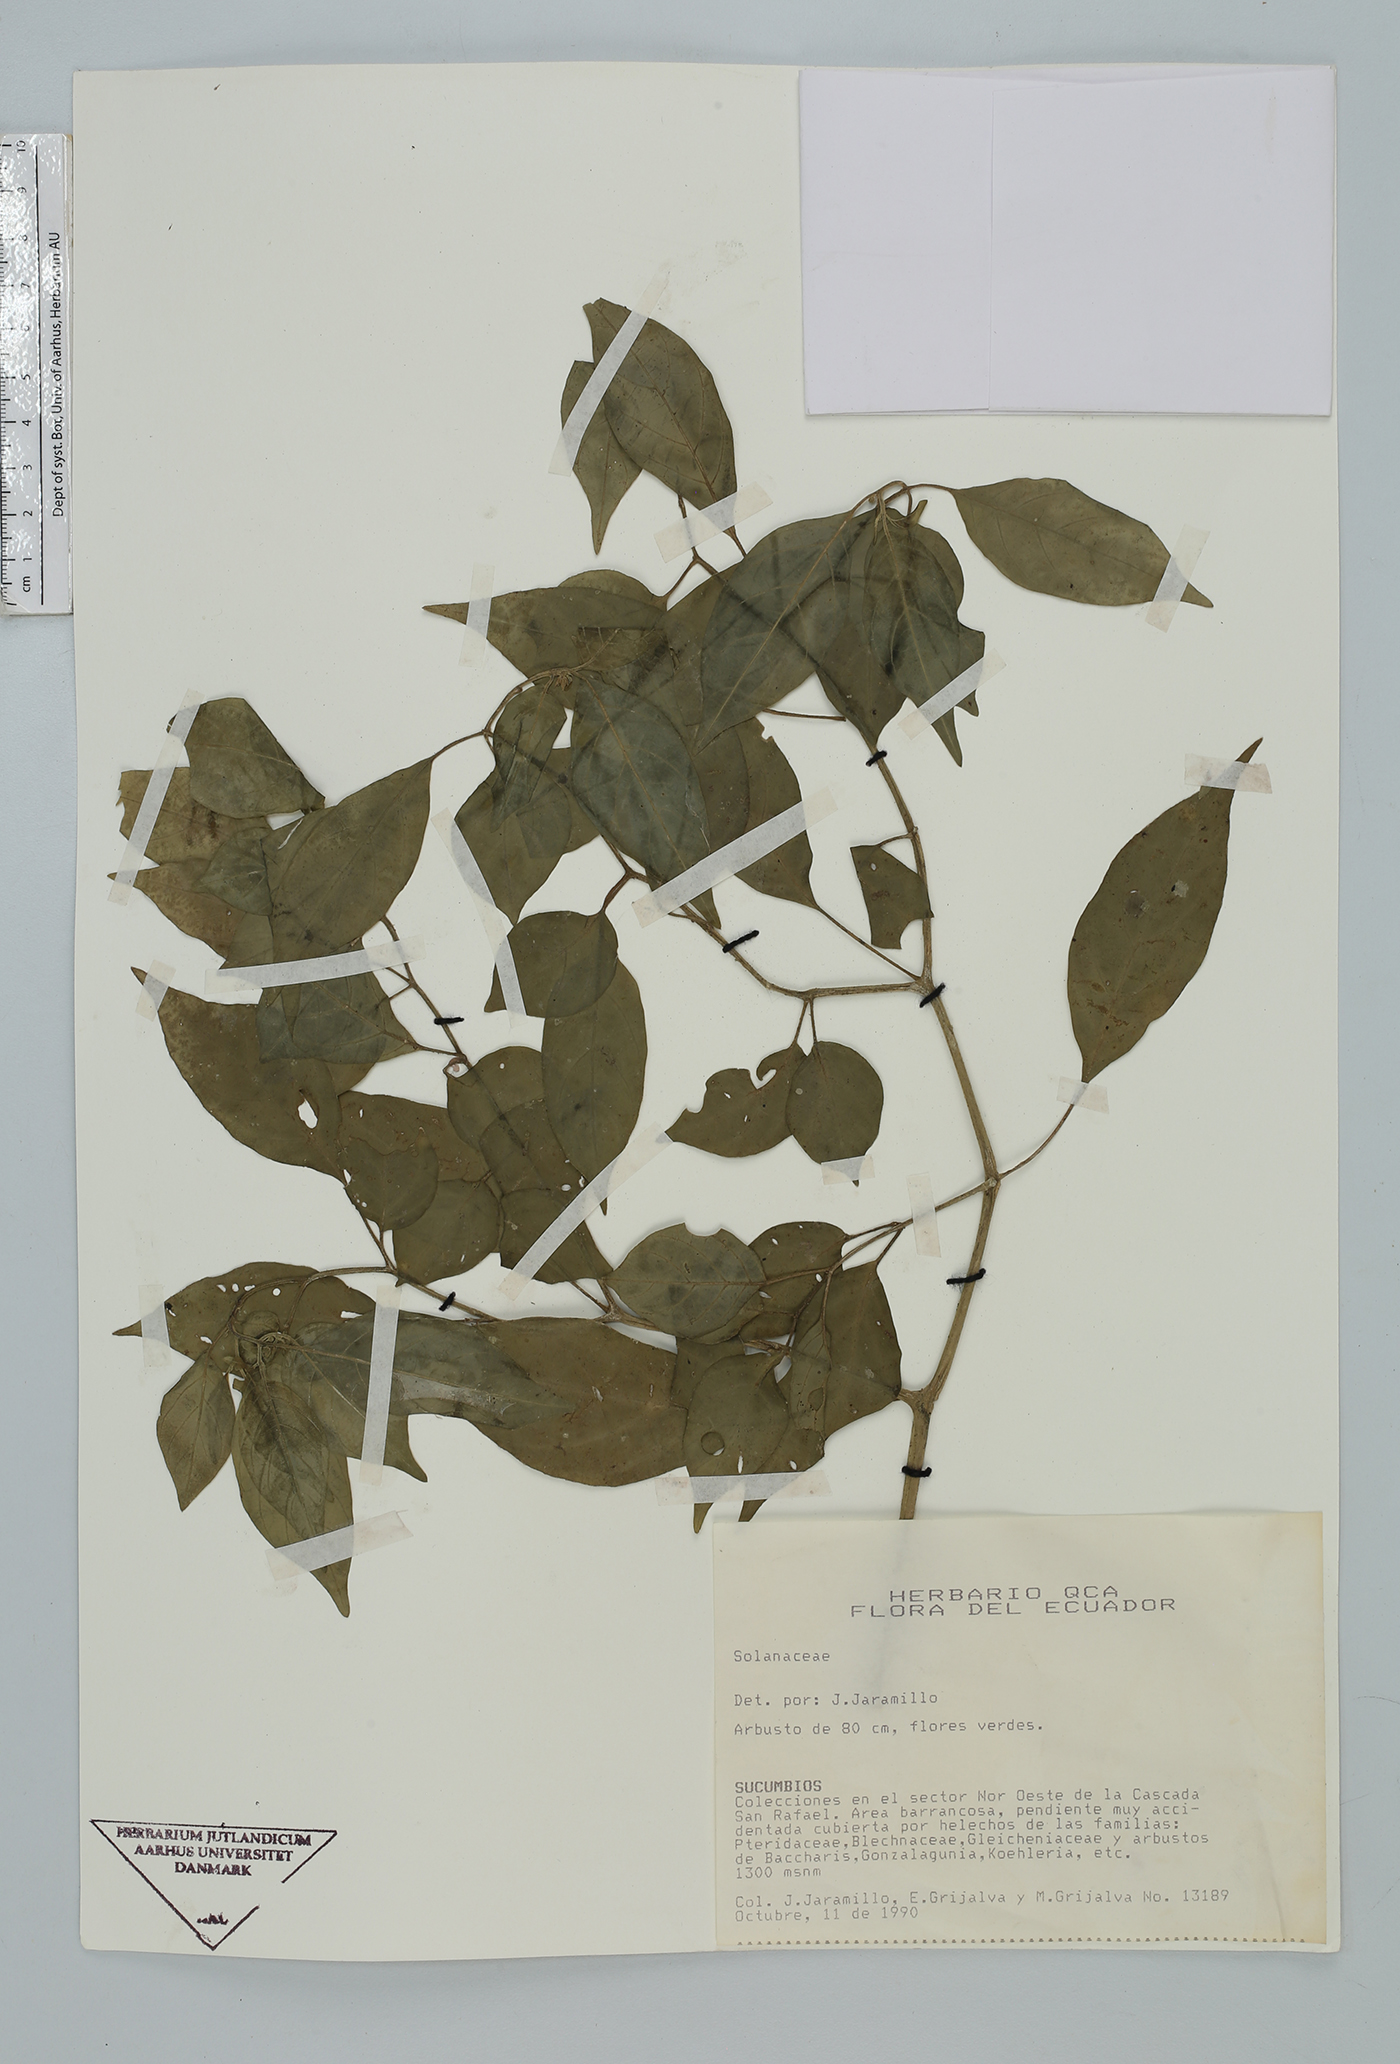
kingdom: Plantae
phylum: Tracheophyta
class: Magnoliopsida
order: Solanales
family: Solanaceae
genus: Deprea
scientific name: Deprea
